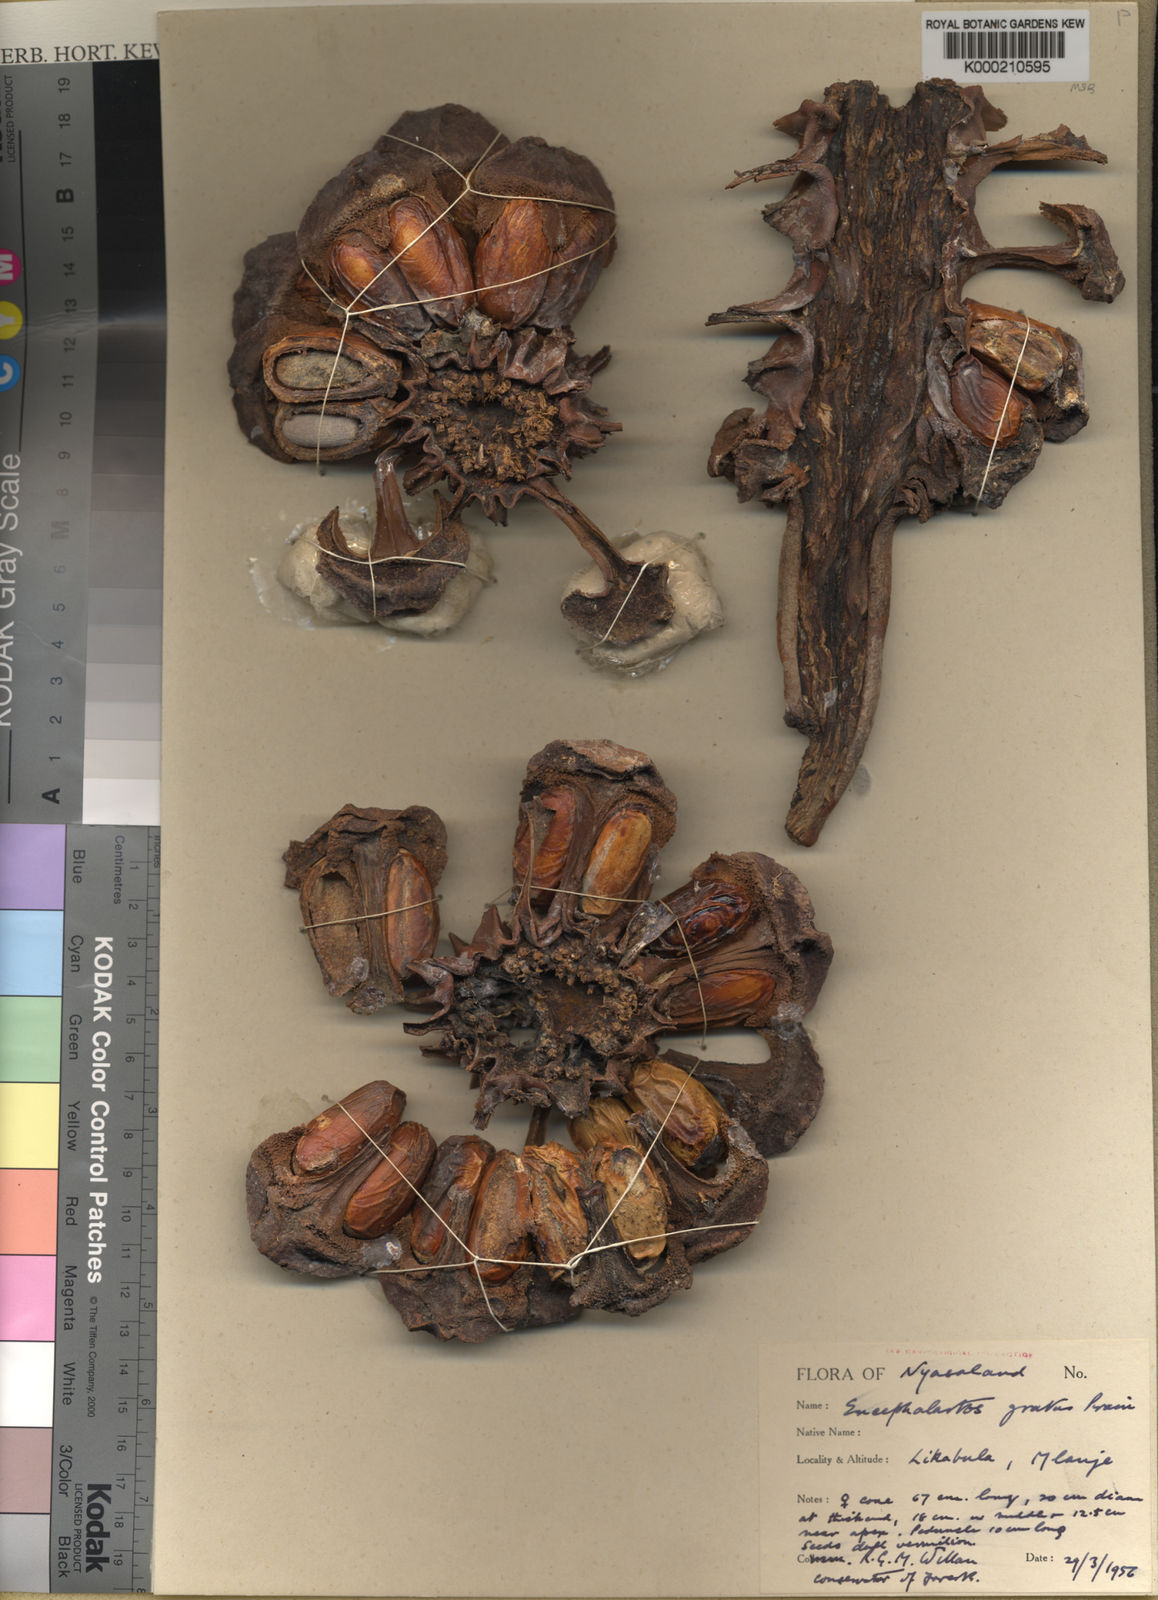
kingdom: Plantae
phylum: Tracheophyta
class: Cycadopsida
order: Cycadales
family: Zamiaceae
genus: Encephalartos
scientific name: Encephalartos gratus
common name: Mulanje cycad
